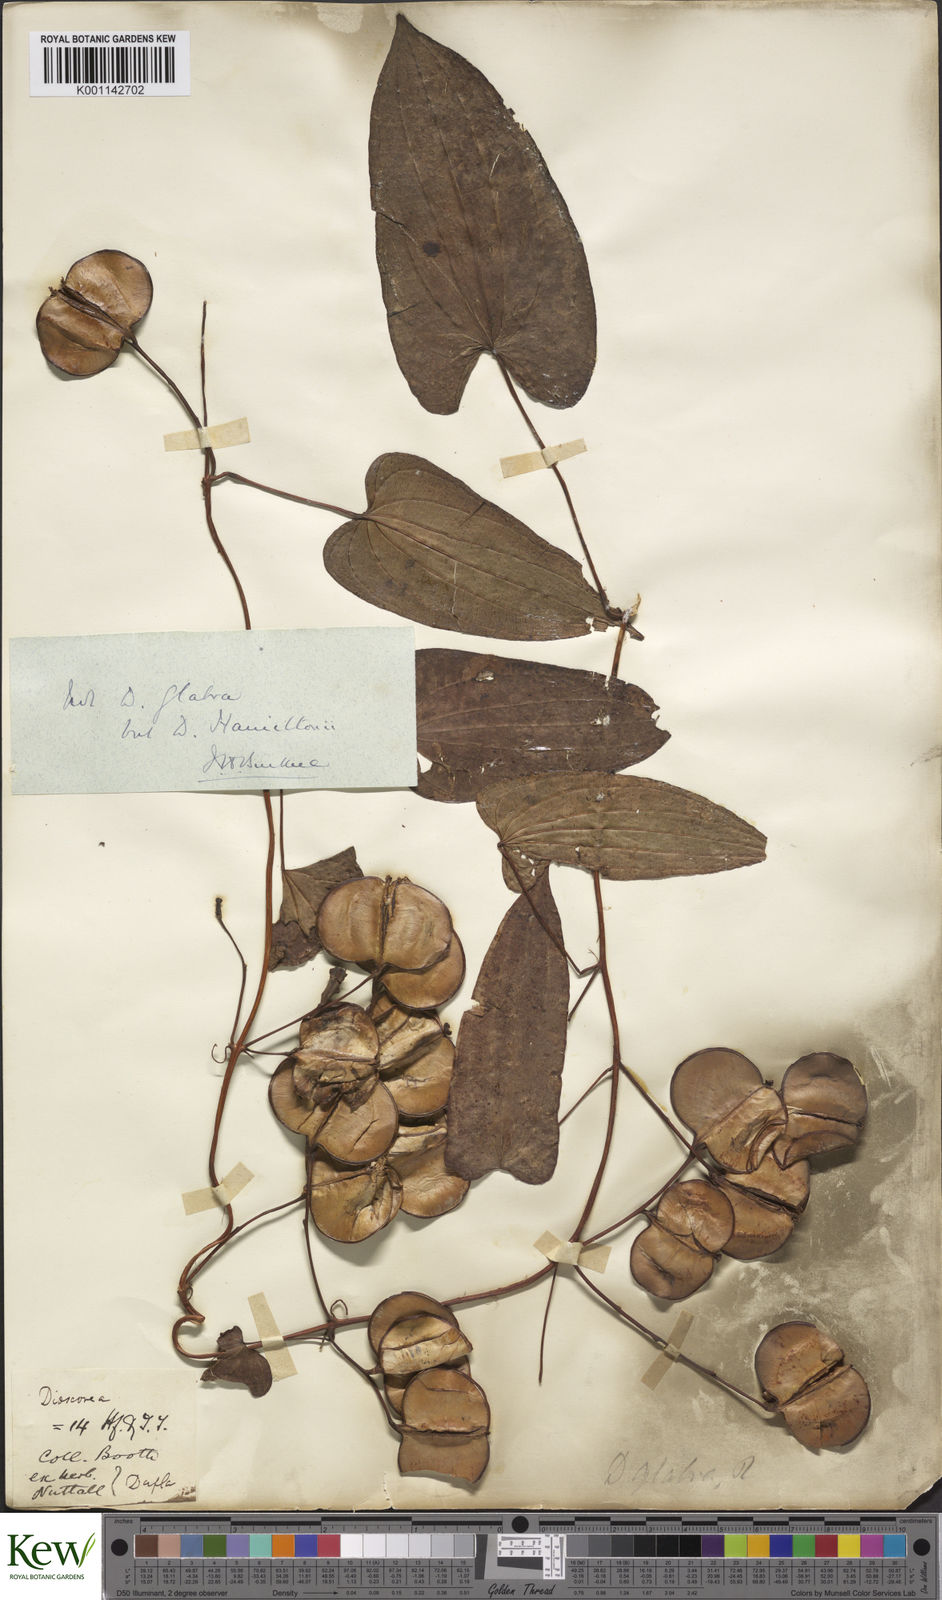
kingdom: Plantae
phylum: Tracheophyta
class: Liliopsida
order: Dioscoreales
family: Dioscoreaceae
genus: Dioscorea
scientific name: Dioscorea hamiltonii
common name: Mountain yam
